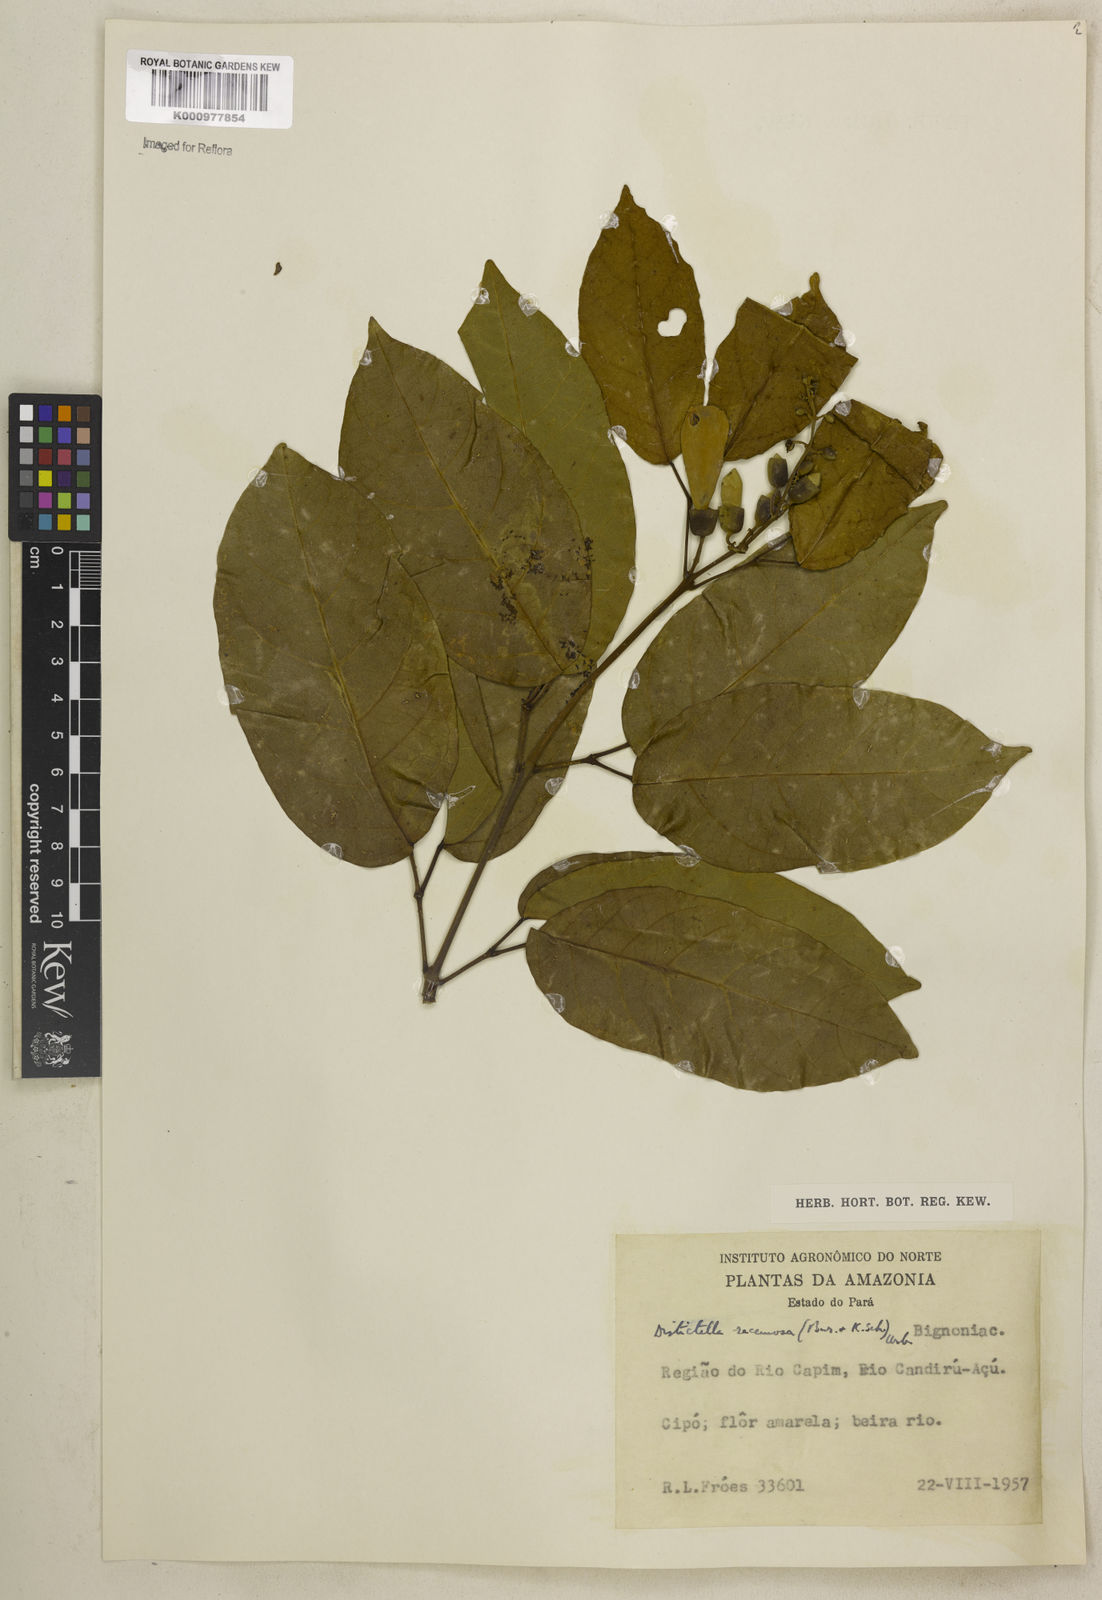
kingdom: Plantae
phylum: Tracheophyta
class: Magnoliopsida
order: Lamiales
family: Bignoniaceae
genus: Amphilophium
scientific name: Amphilophium racemosum
